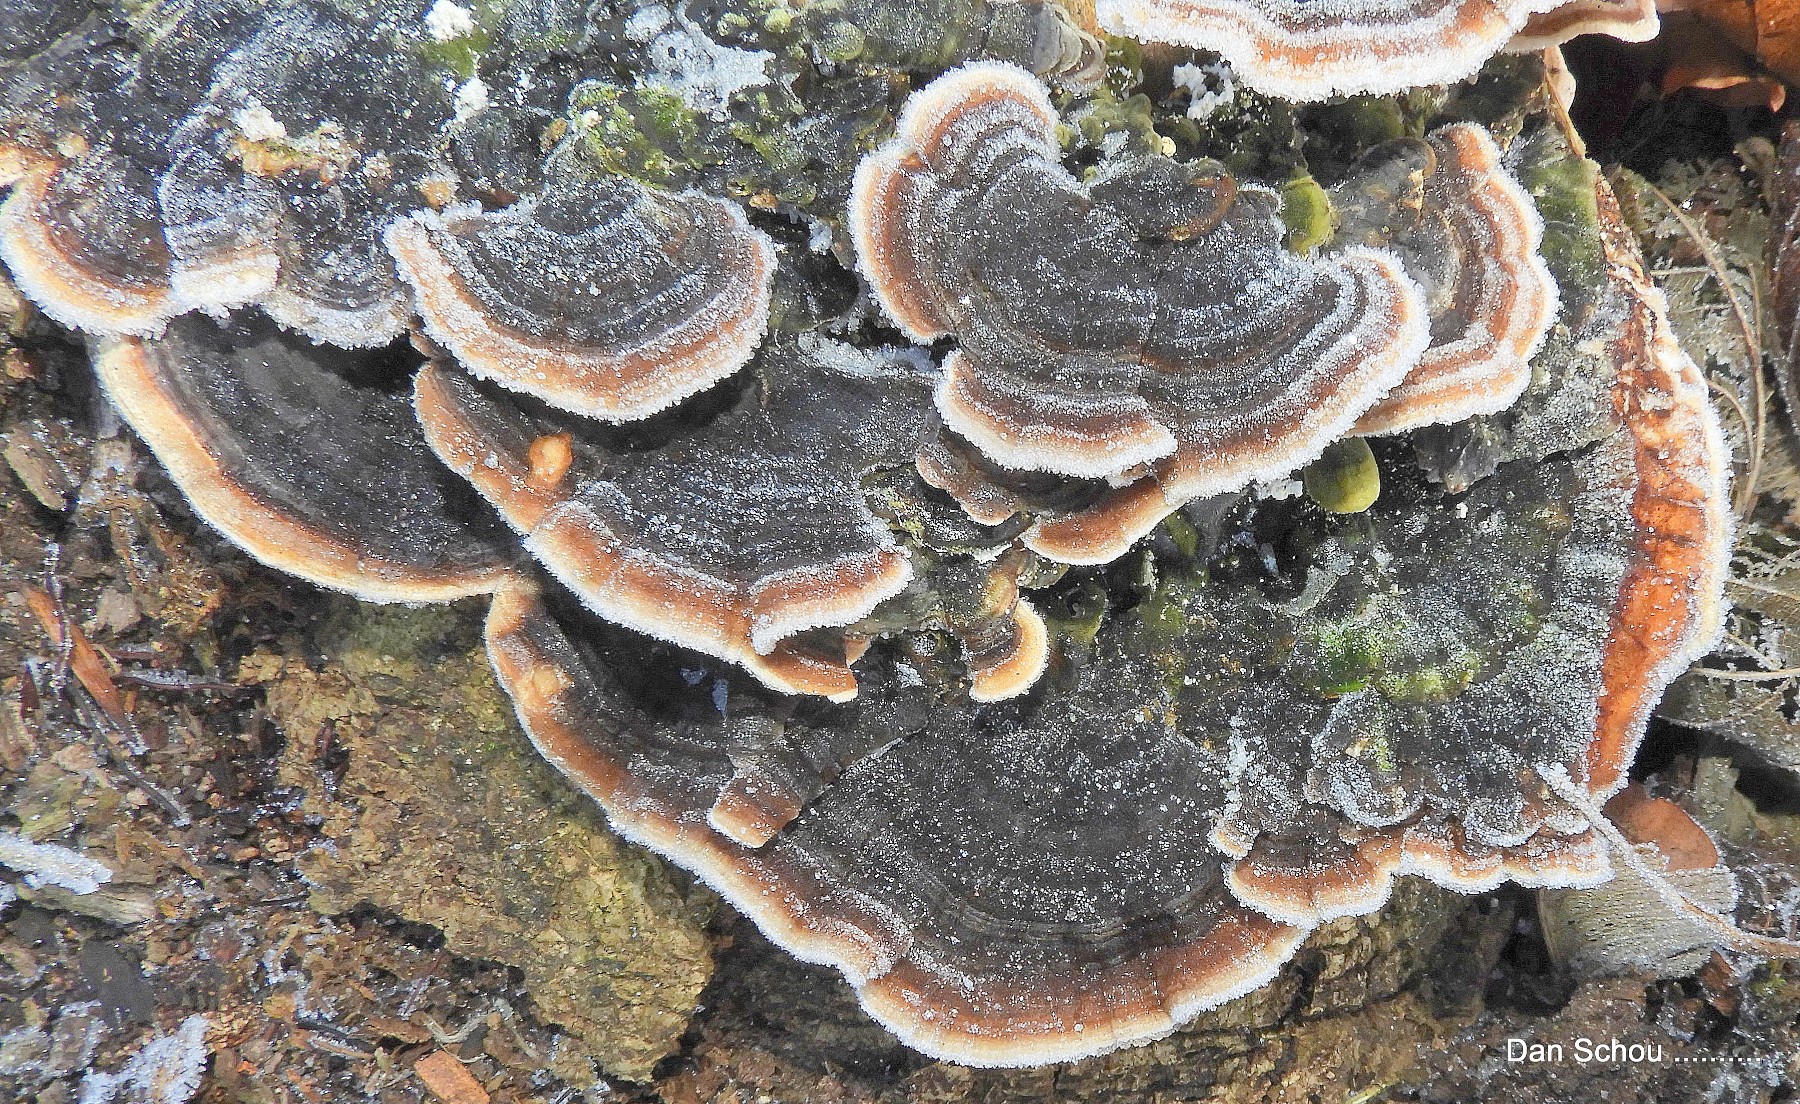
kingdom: Fungi
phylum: Basidiomycota
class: Agaricomycetes
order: Polyporales
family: Polyporaceae
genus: Trametes
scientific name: Trametes versicolor
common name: broget læderporesvamp
